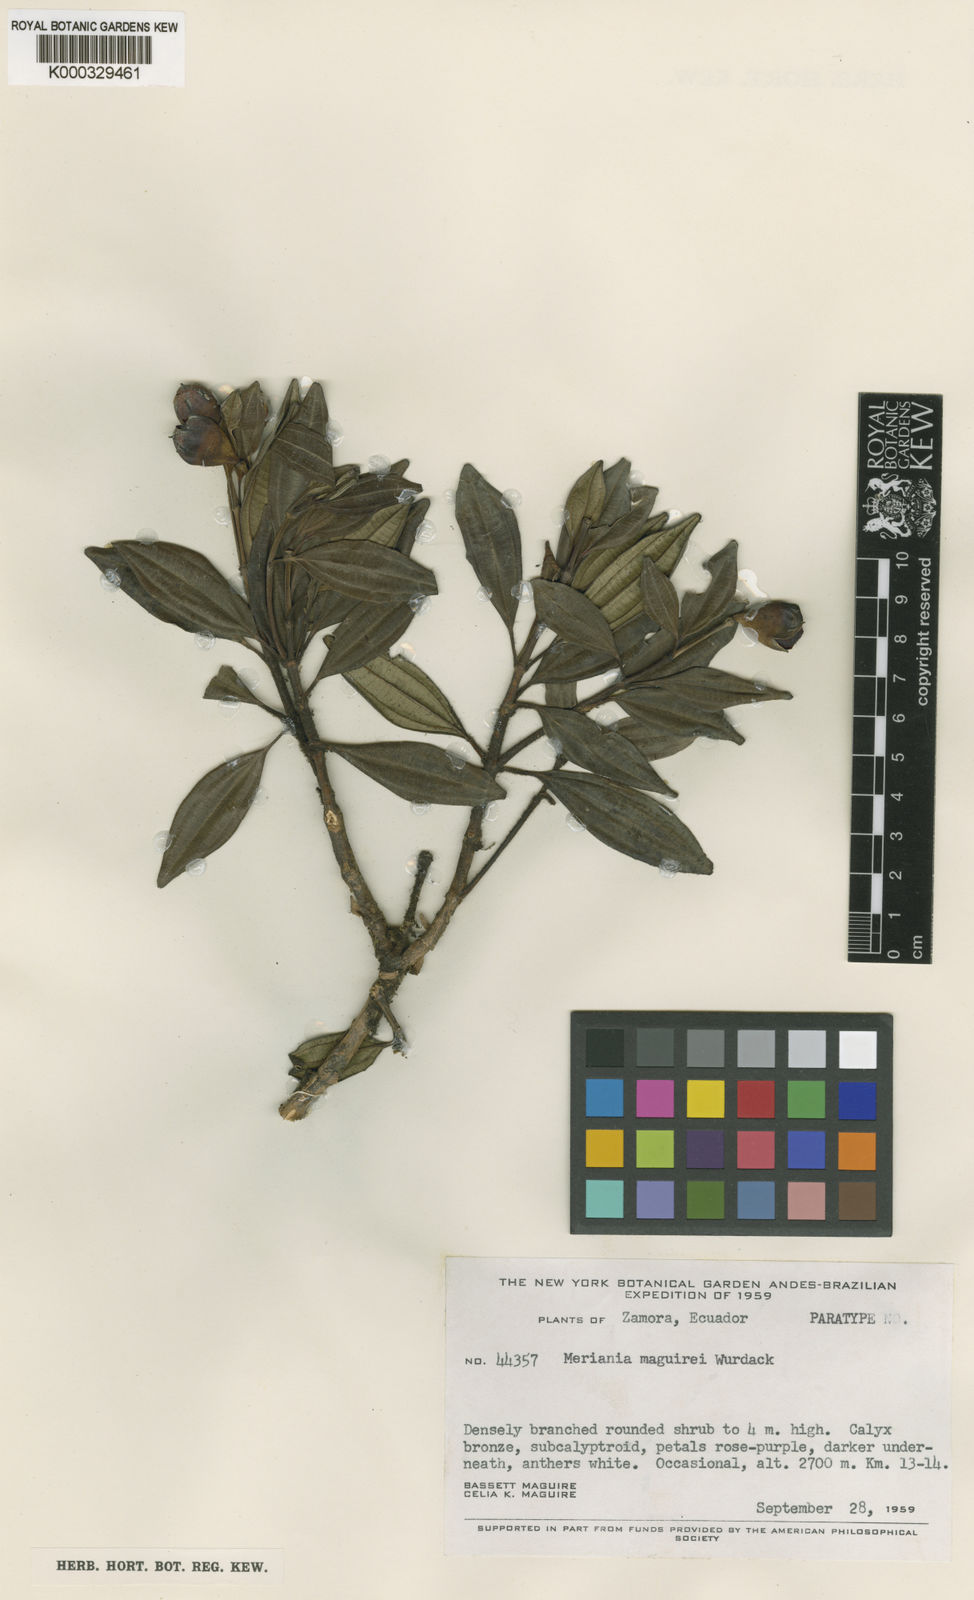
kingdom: Plantae
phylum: Tracheophyta
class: Magnoliopsida
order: Myrtales
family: Melastomataceae
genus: Meriania
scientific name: Meriania maguirei
